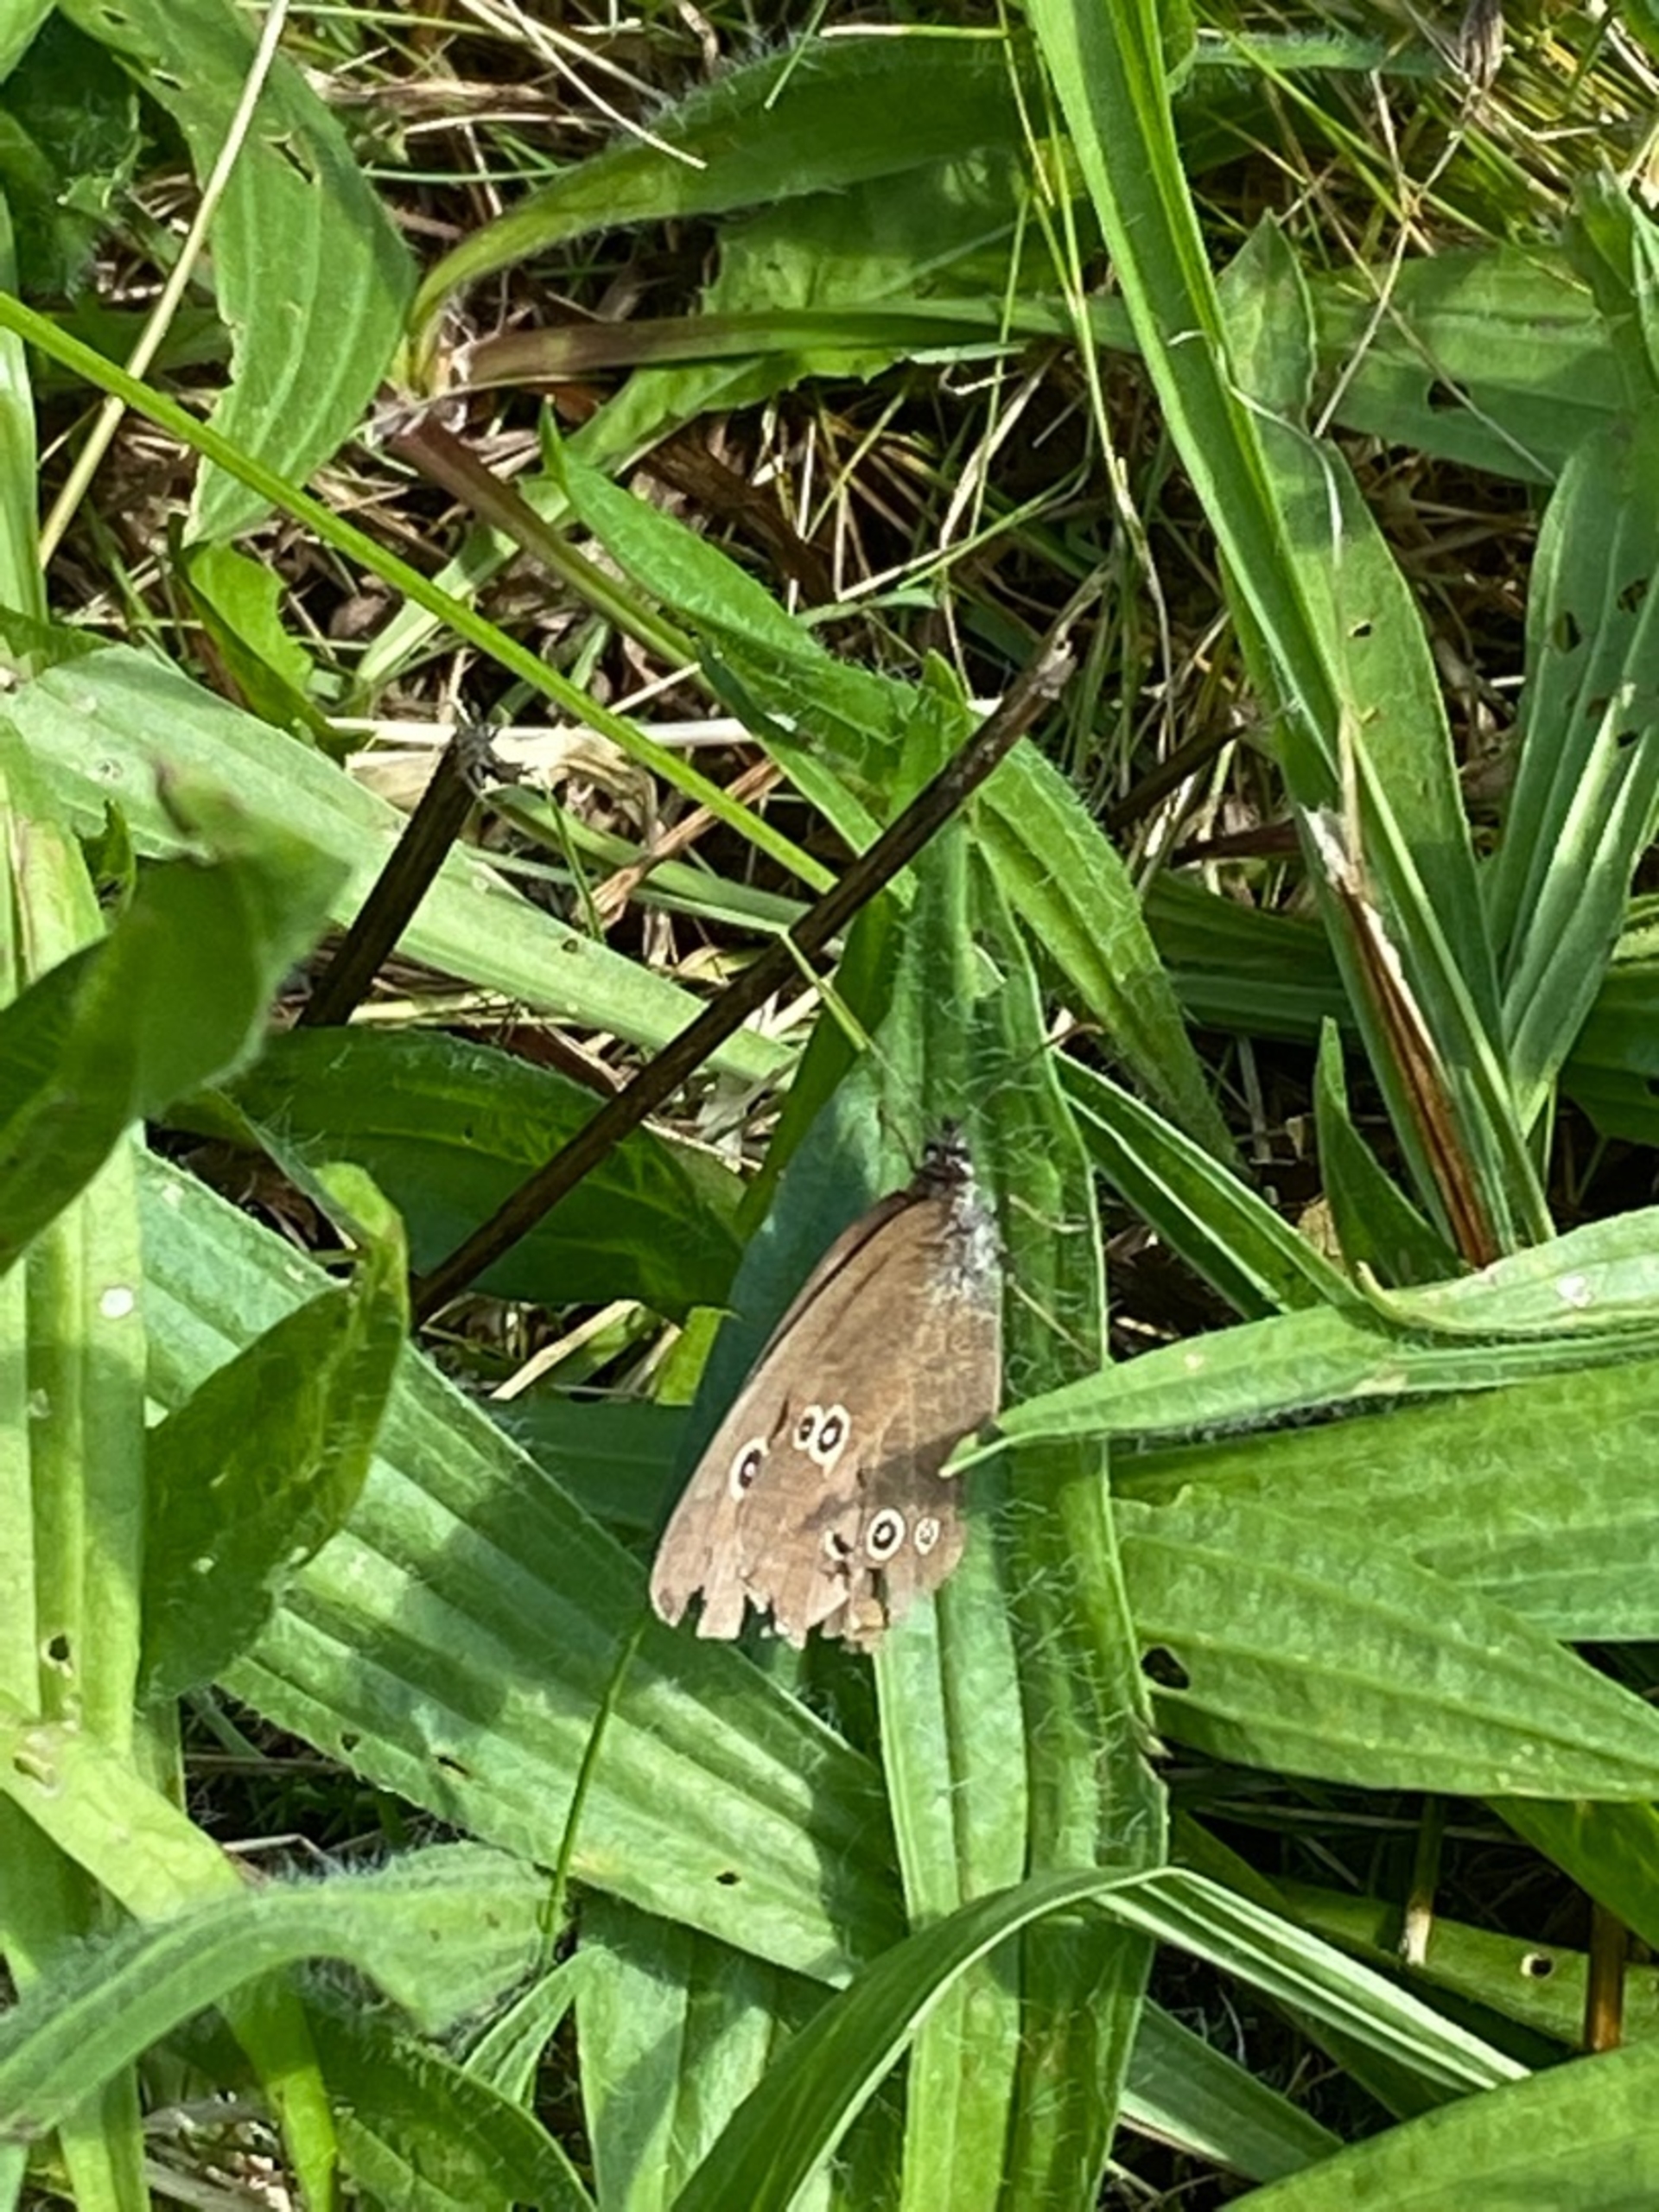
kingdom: Animalia
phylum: Arthropoda
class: Insecta
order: Lepidoptera
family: Nymphalidae
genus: Aphantopus
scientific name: Aphantopus hyperantus
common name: Engrandøje
